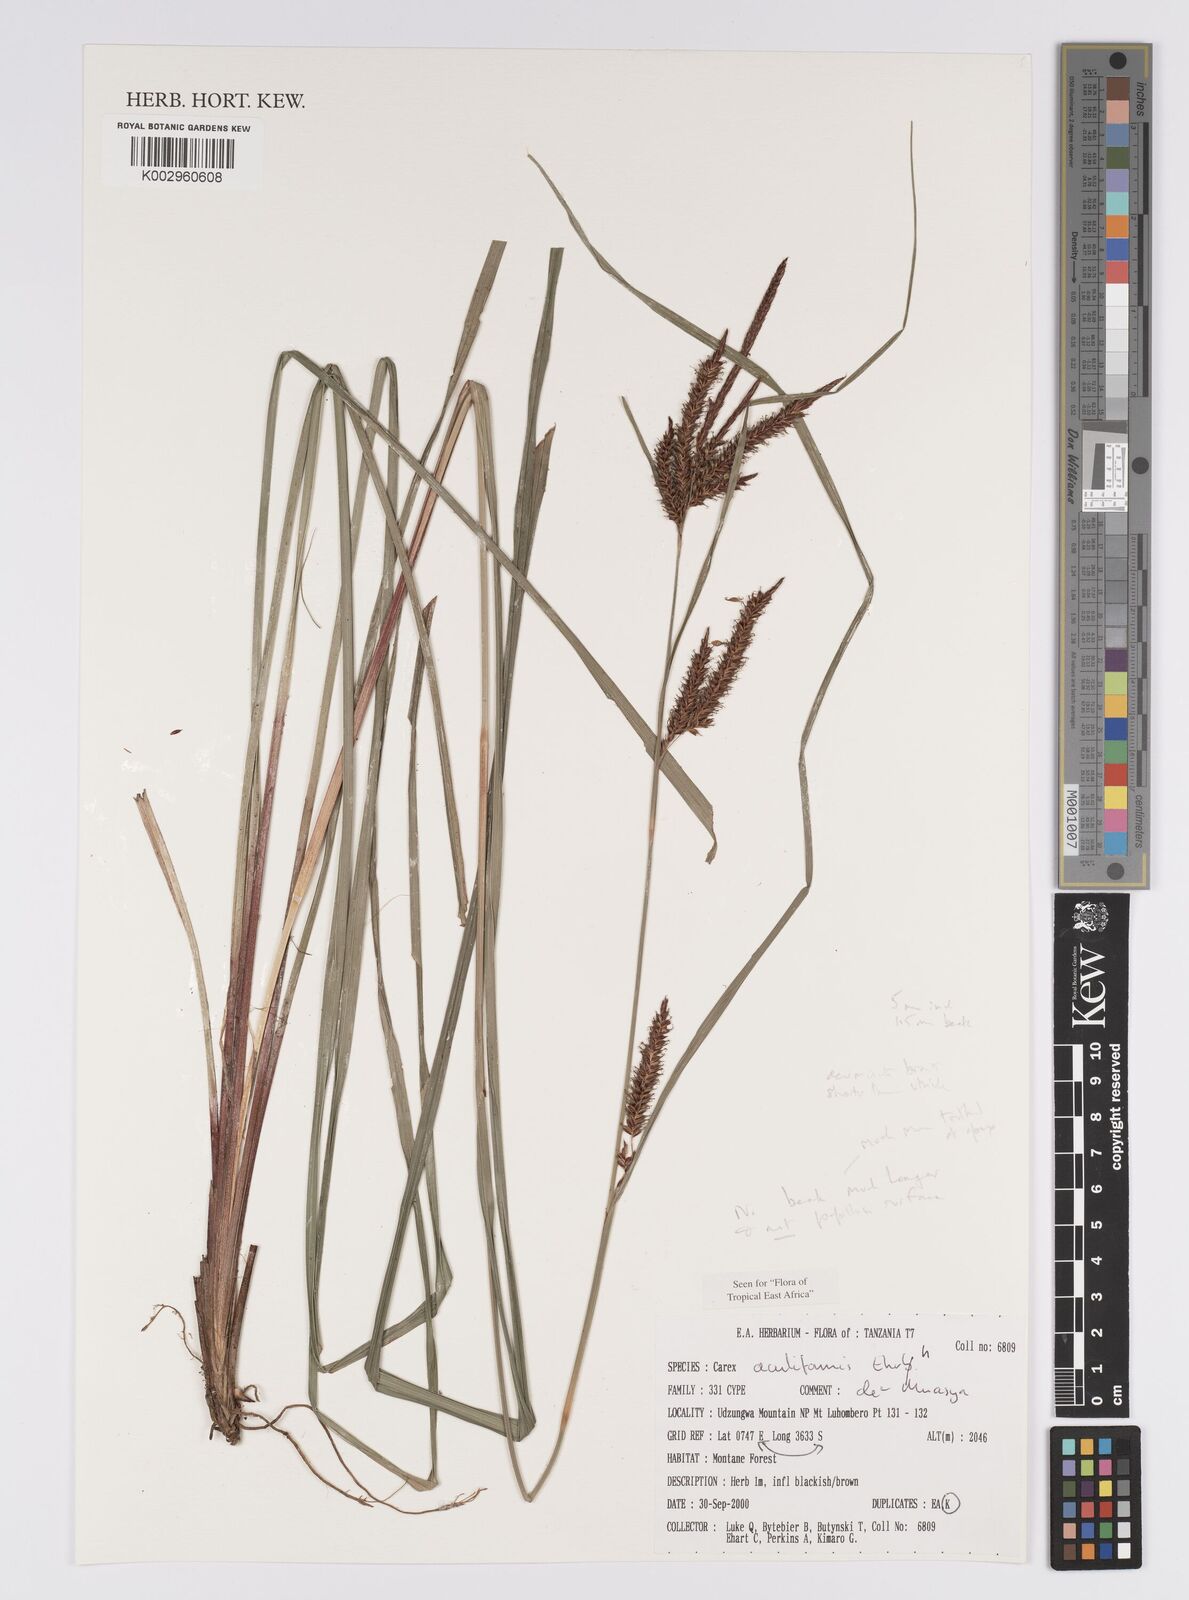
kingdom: Plantae
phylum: Tracheophyta
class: Liliopsida
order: Poales
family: Cyperaceae
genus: Carex
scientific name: Carex acutiformis
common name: Lesser pond-sedge
